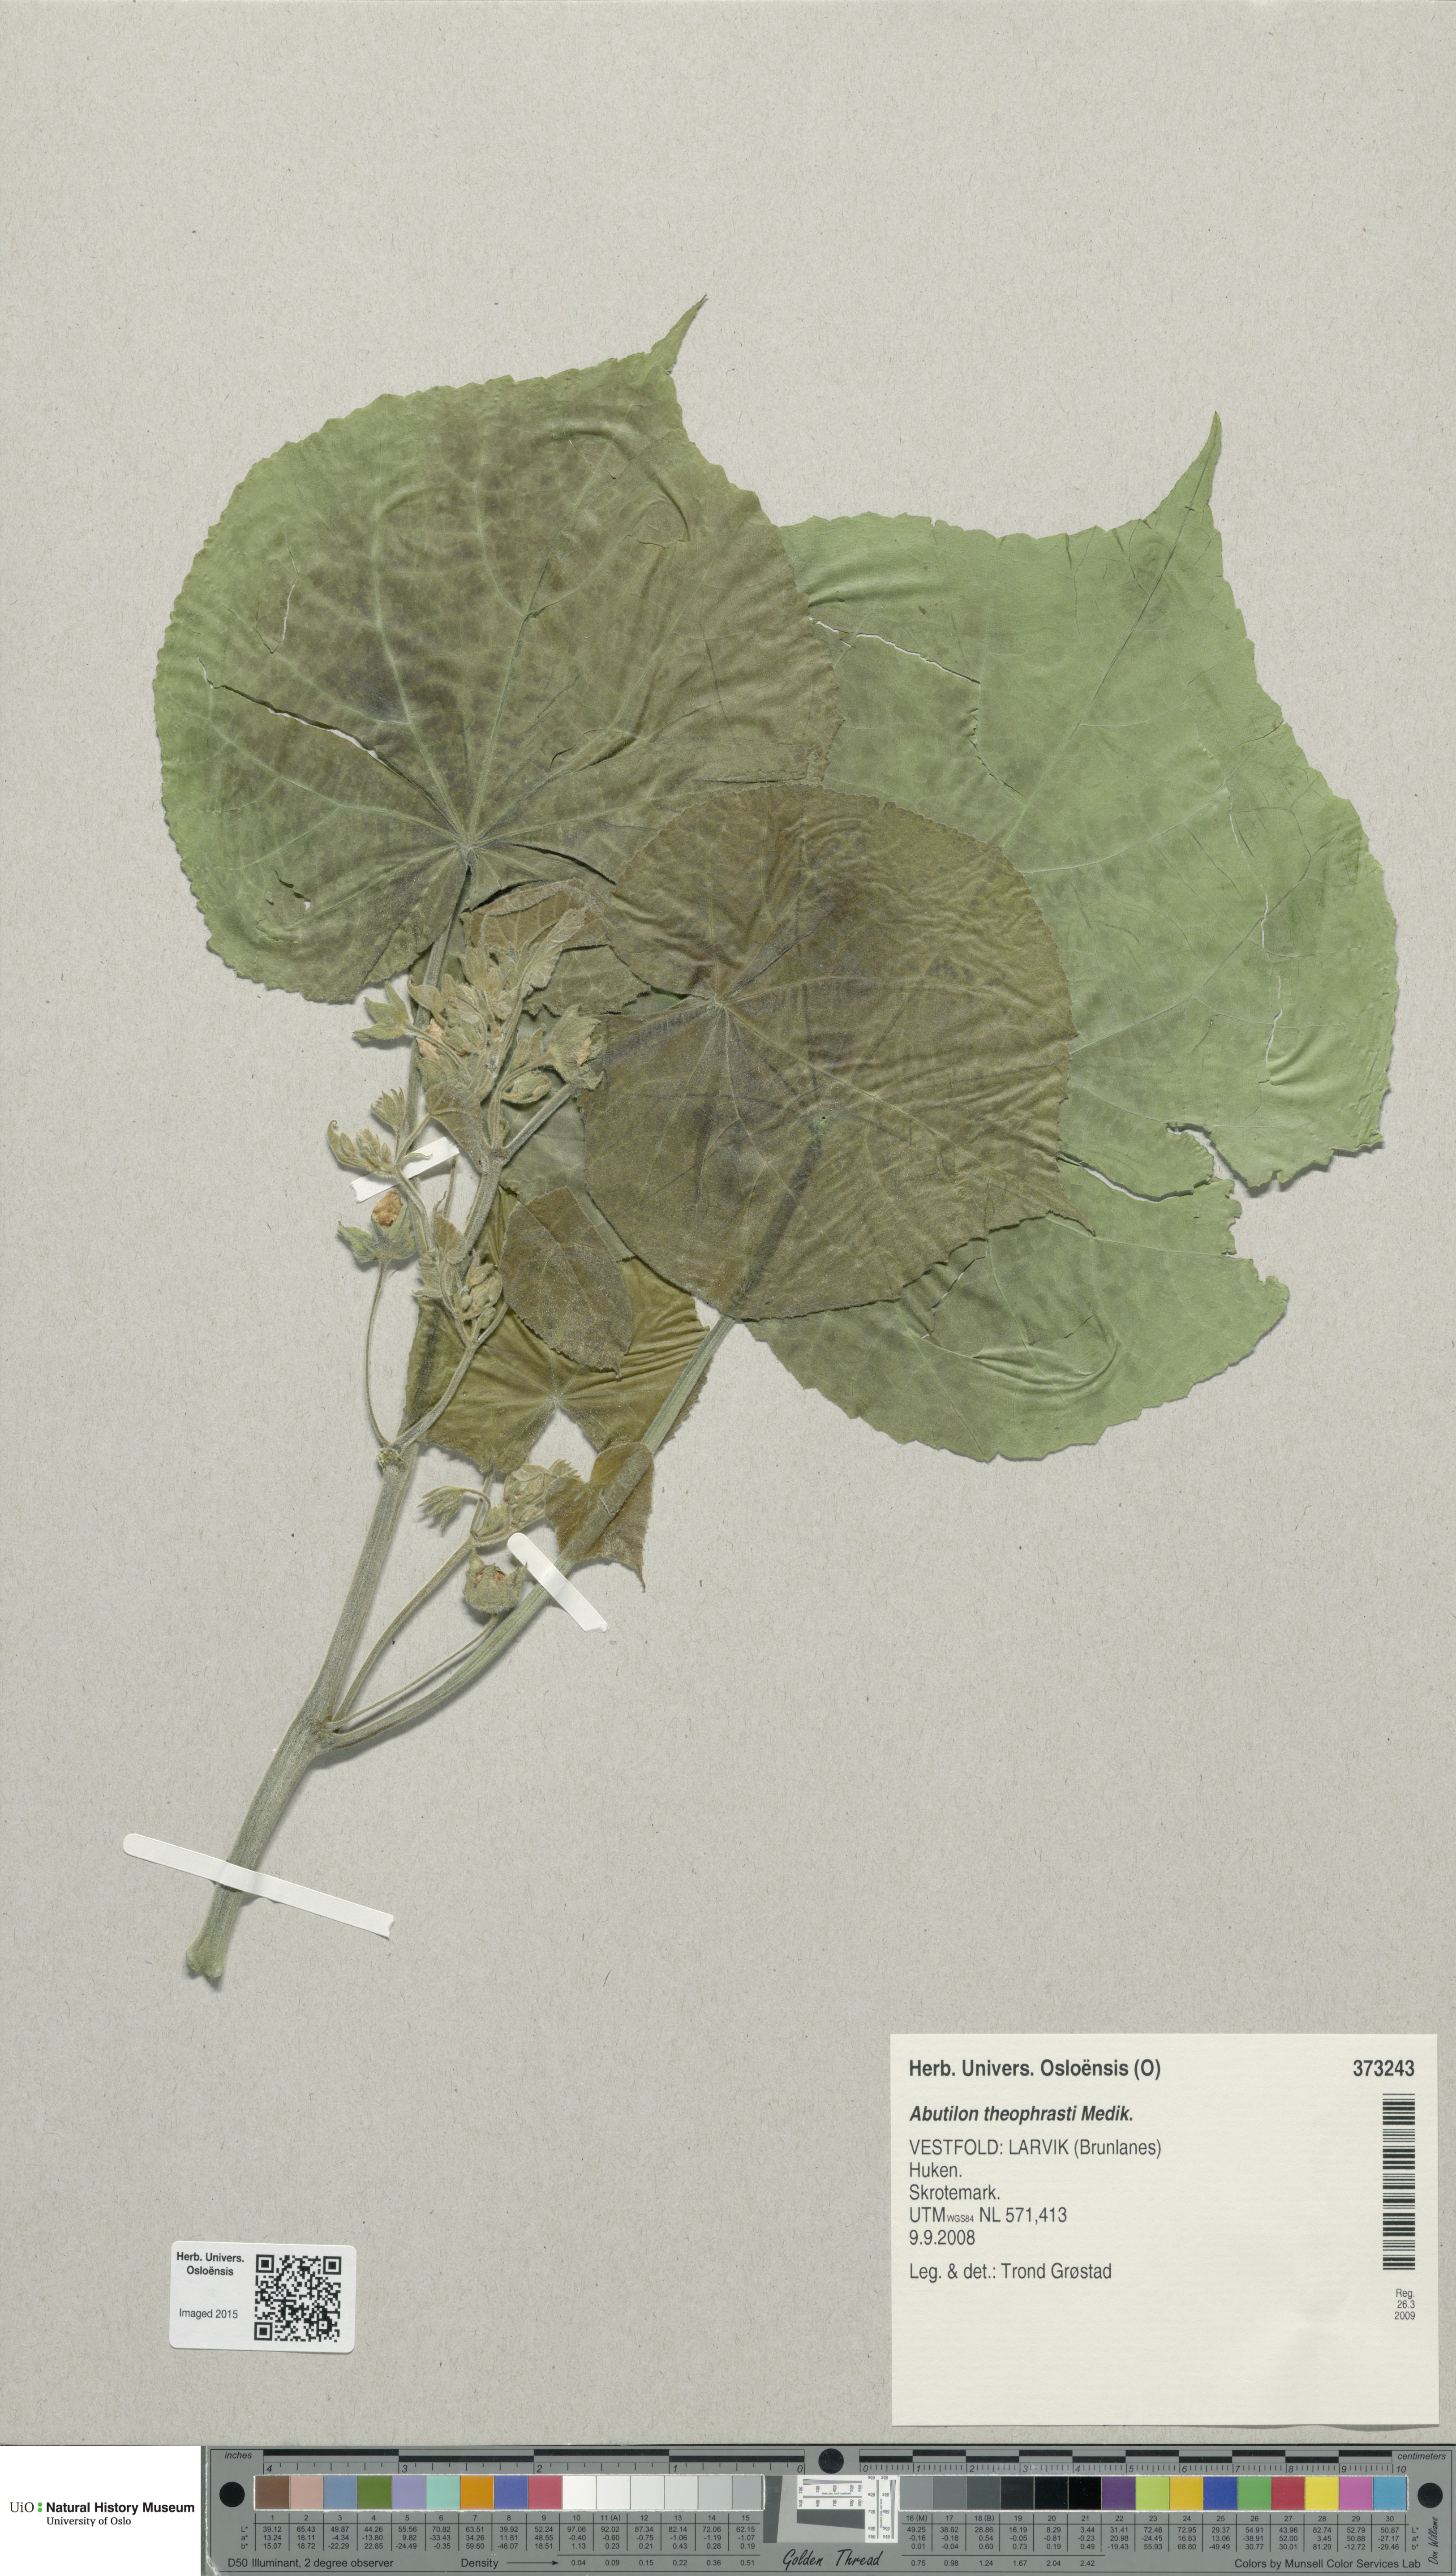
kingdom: Plantae
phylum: Tracheophyta
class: Magnoliopsida
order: Malvales
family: Malvaceae
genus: Abutilon
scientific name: Abutilon theophrasti
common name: Velvetleaf
